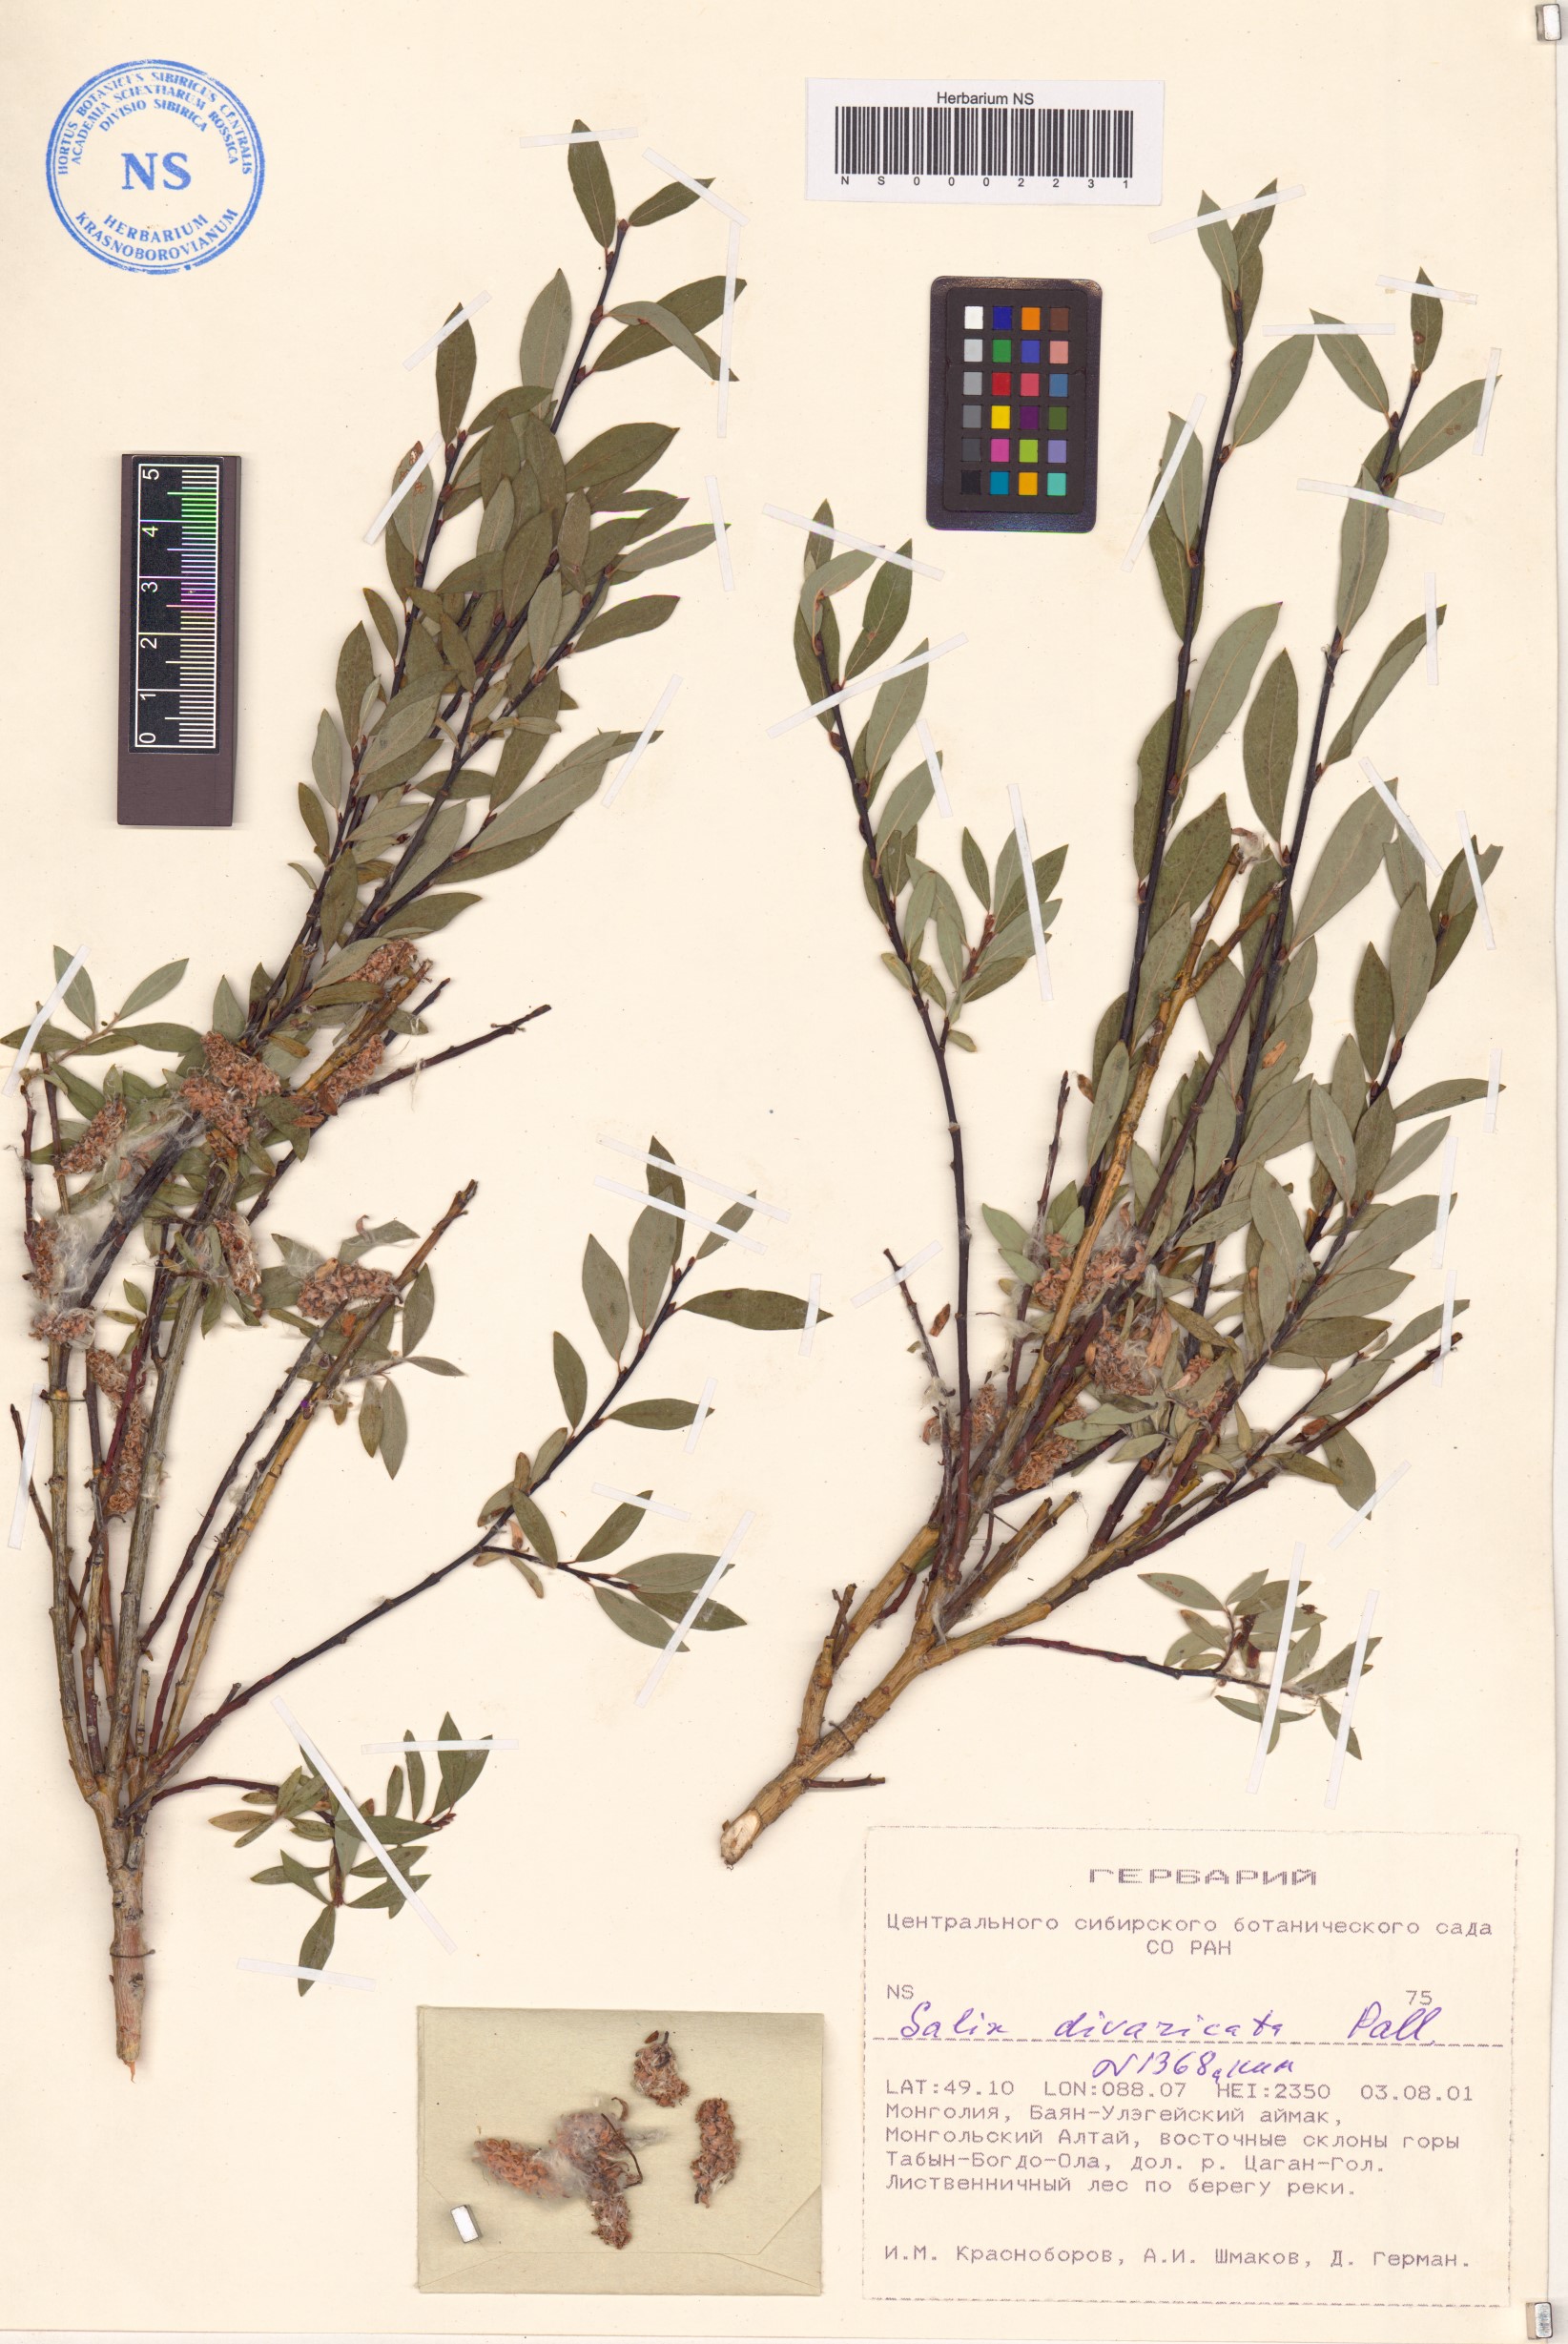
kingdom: Plantae
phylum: Tracheophyta
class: Magnoliopsida
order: Malpighiales
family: Salicaceae
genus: Salix
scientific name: Salix divaricata
